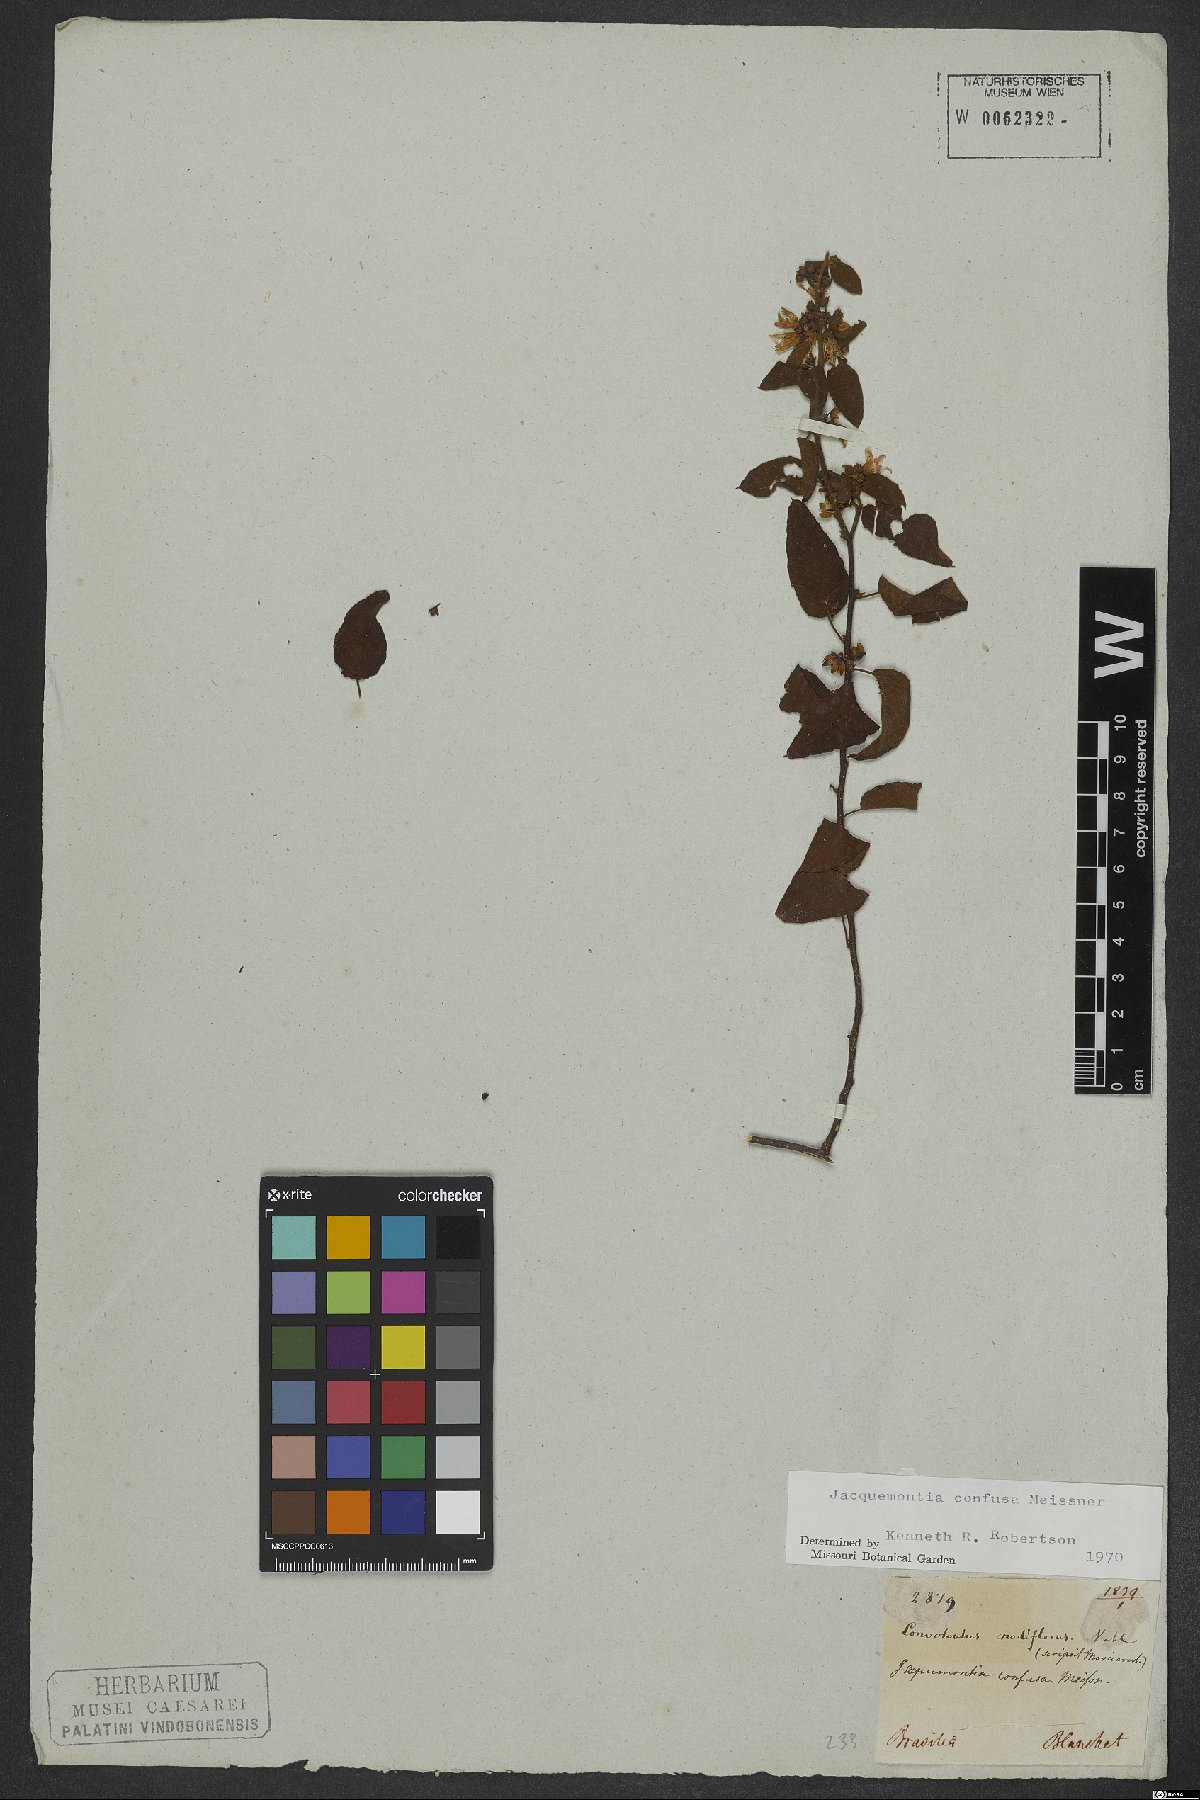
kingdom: Plantae
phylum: Tracheophyta
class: Magnoliopsida
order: Solanales
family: Convolvulaceae
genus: Jacquemontia
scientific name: Jacquemontia nodiflora
